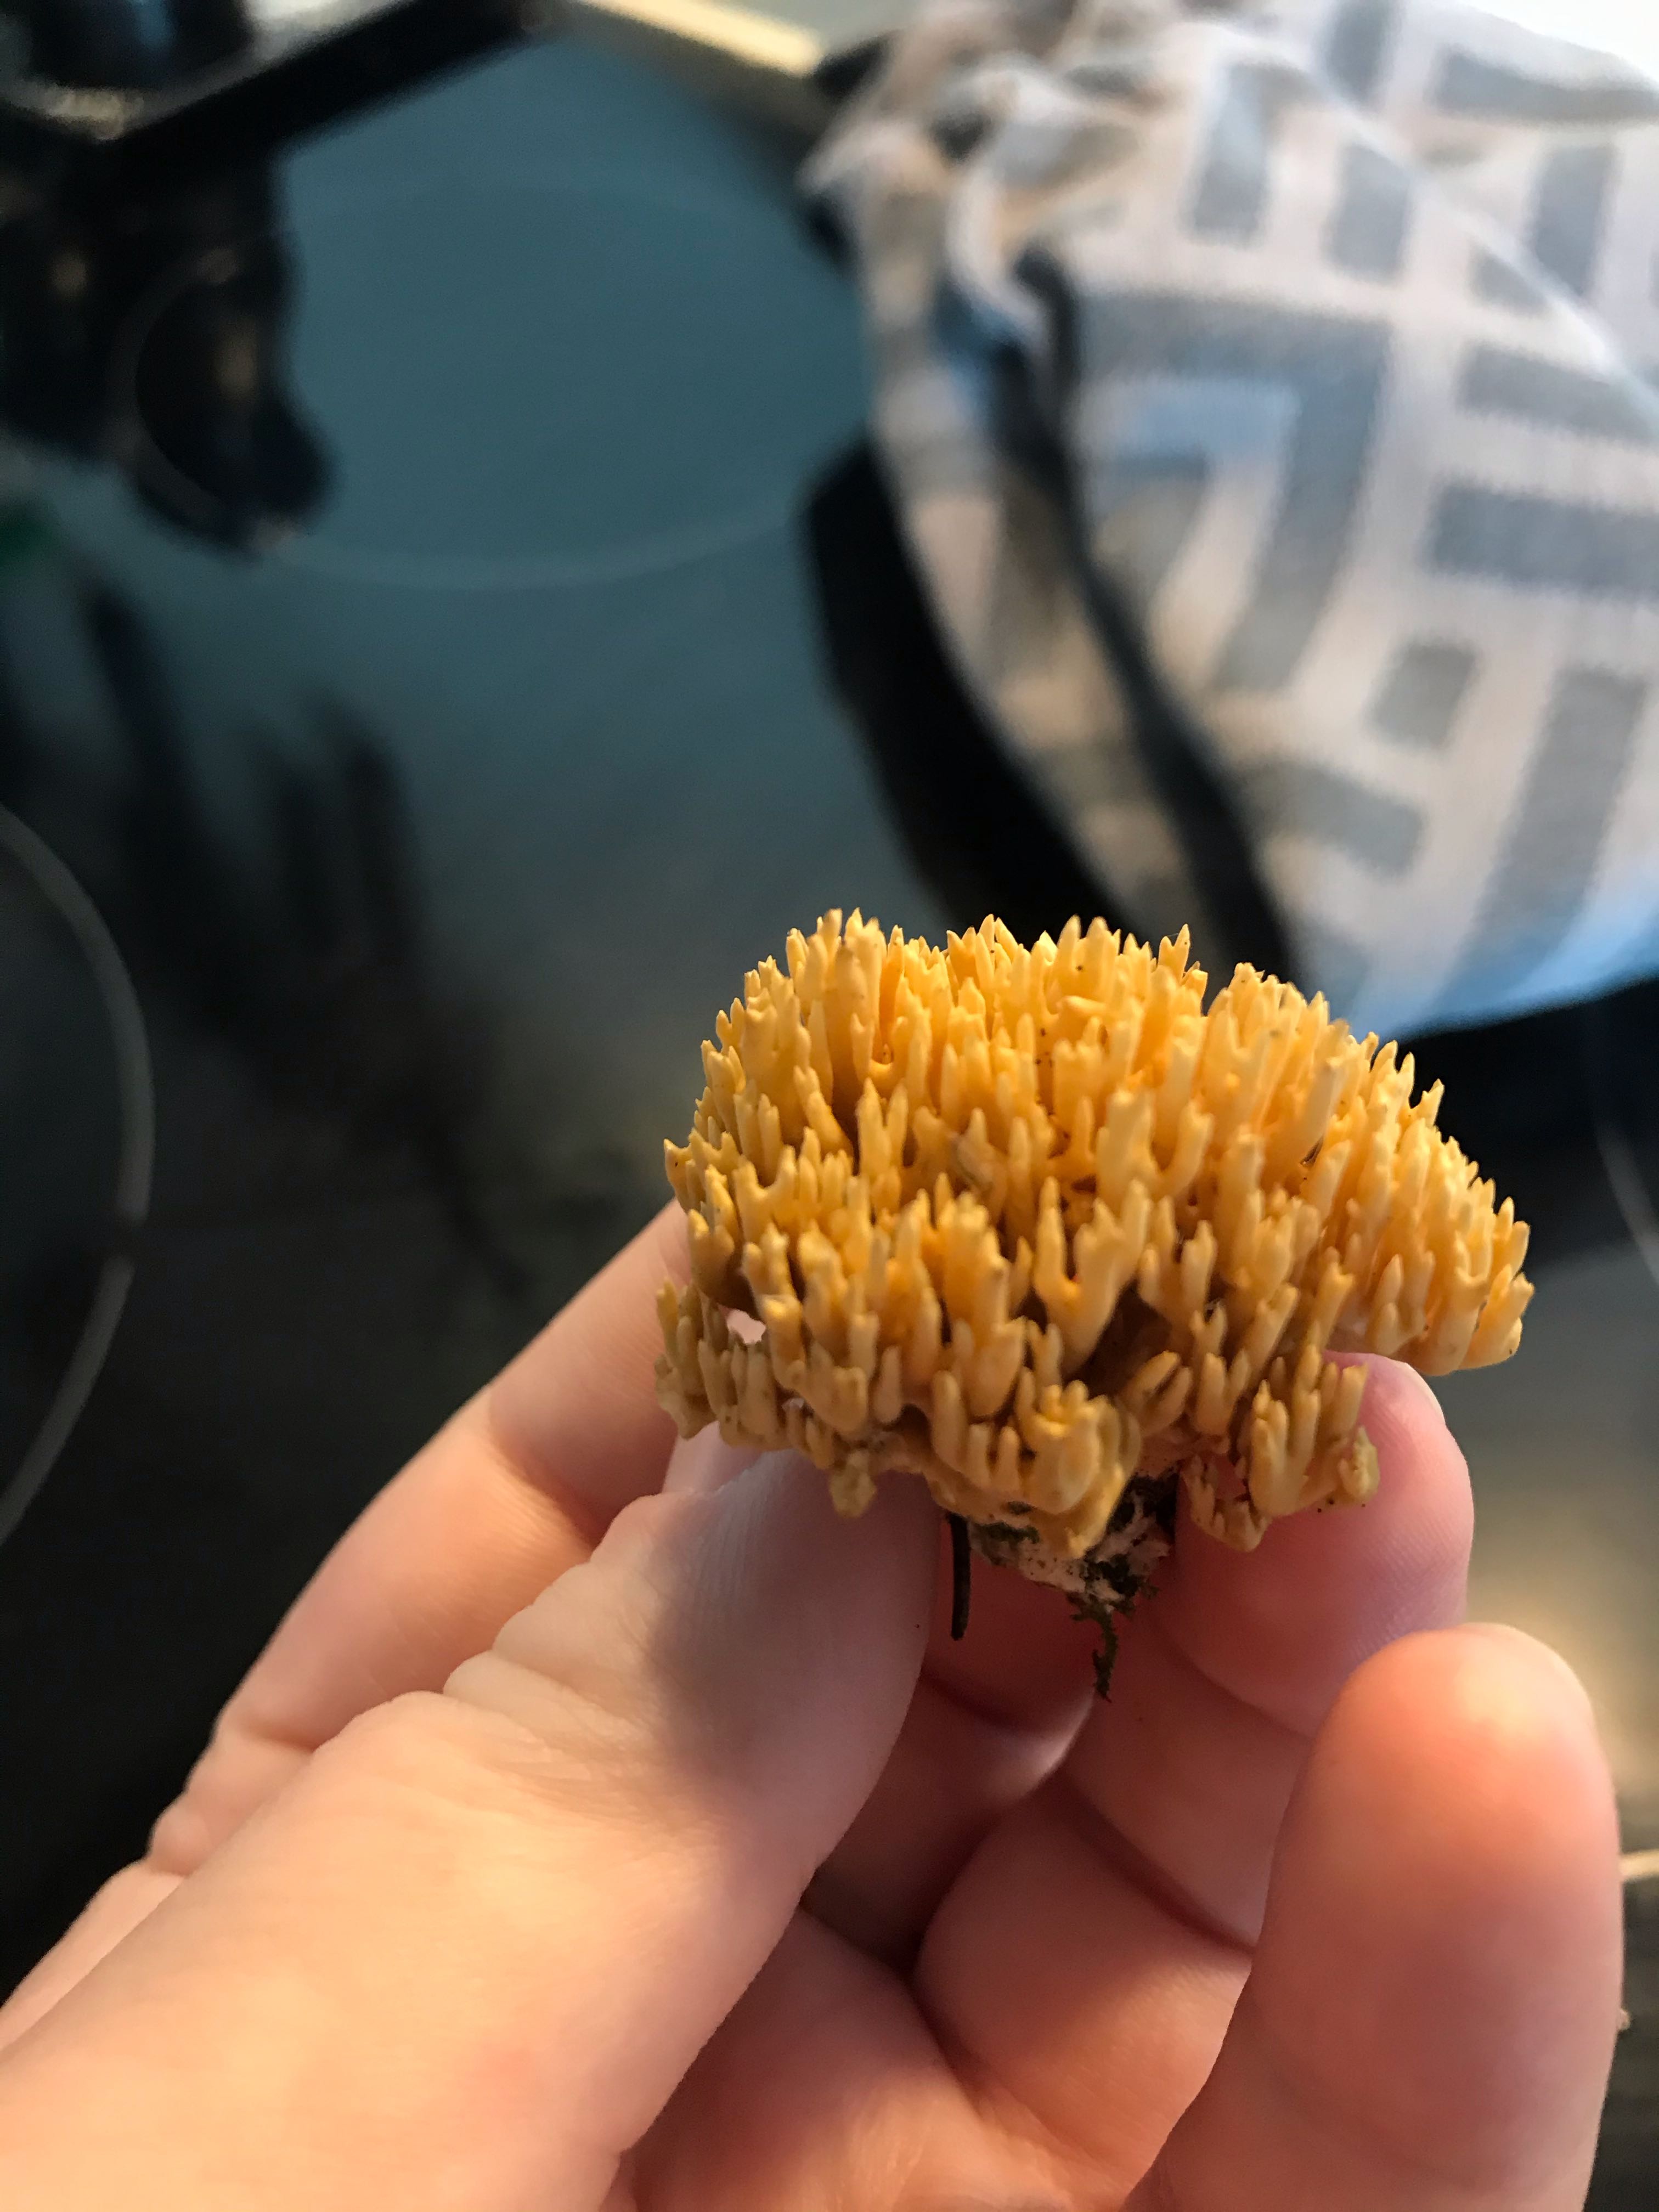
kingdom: Fungi
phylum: Basidiomycota
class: Agaricomycetes
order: Gomphales
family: Gomphaceae
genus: Phaeoclavulina
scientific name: Phaeoclavulina eumorpha
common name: gran-koralsvamp
